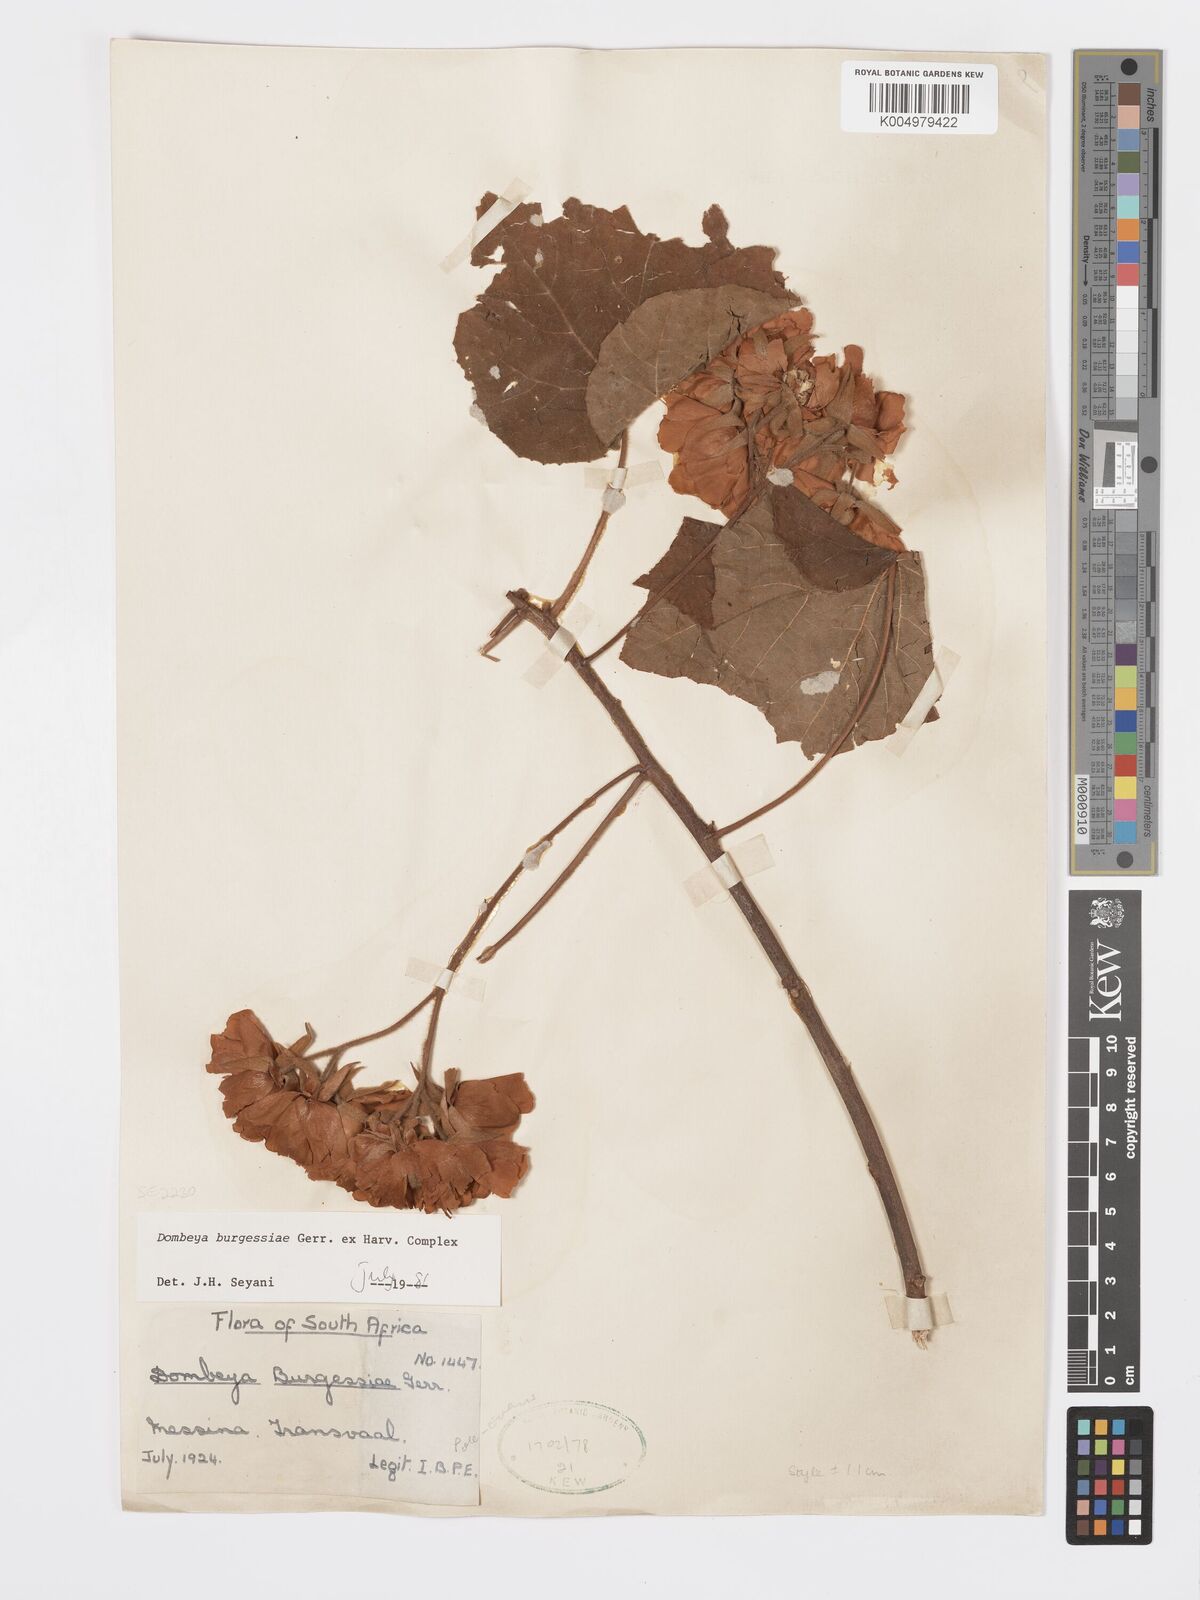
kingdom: Plantae
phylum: Tracheophyta
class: Magnoliopsida
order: Malvales
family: Malvaceae
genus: Dombeya
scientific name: Dombeya burgessiae
